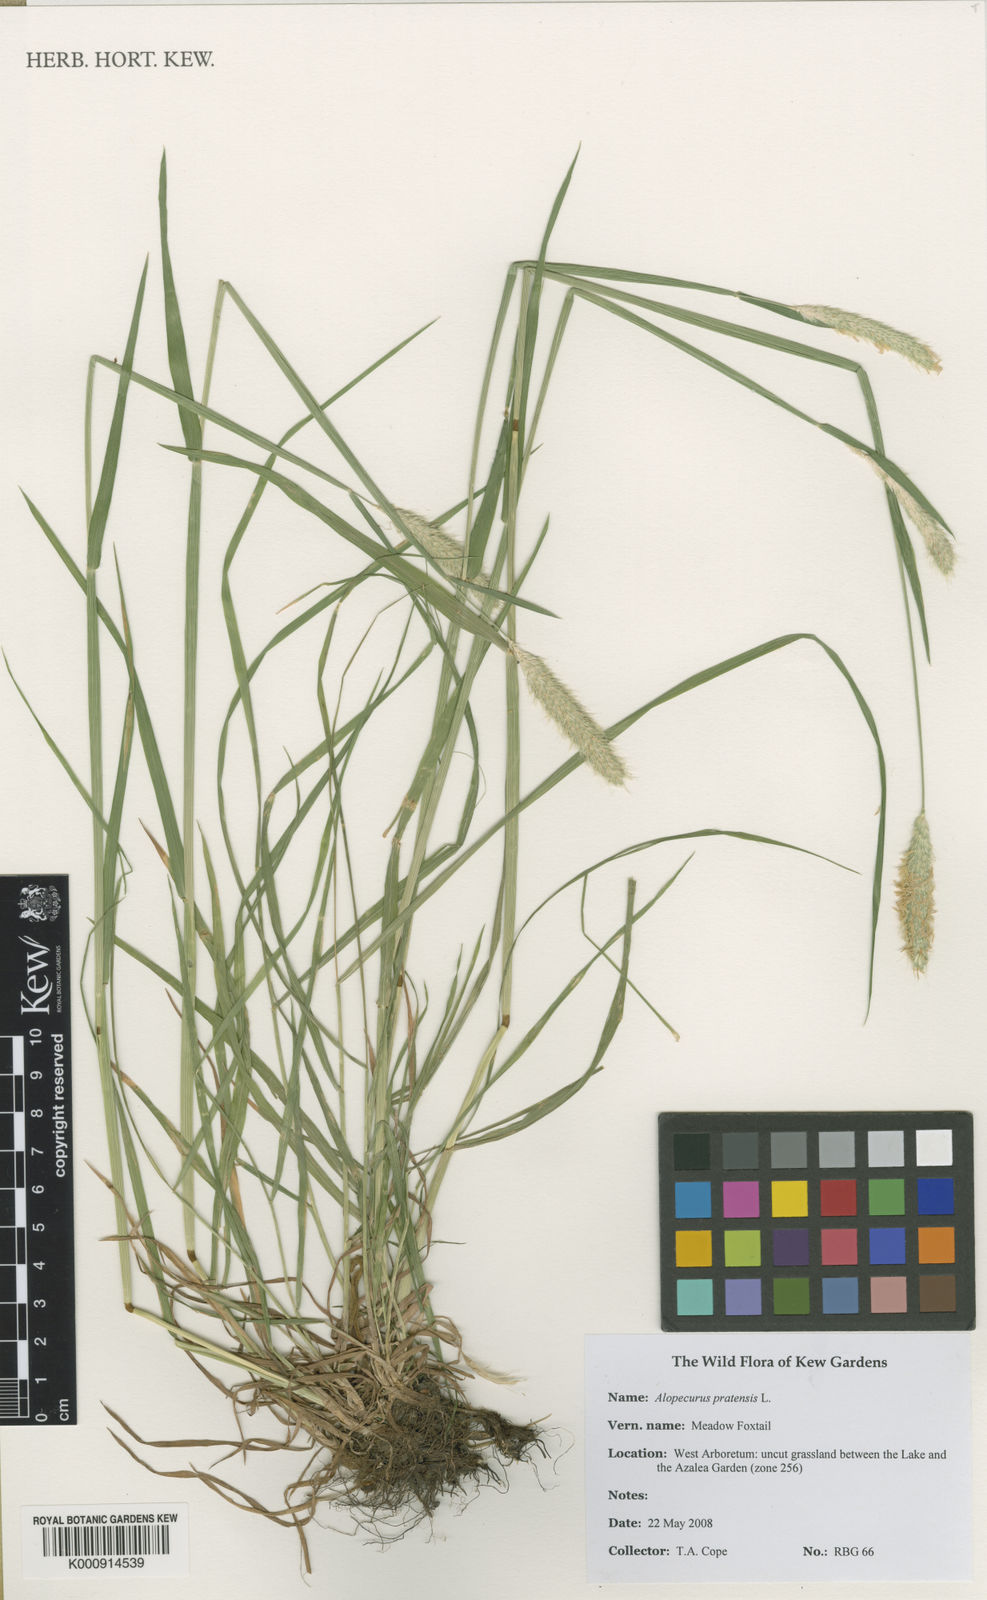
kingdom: Plantae
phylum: Tracheophyta
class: Liliopsida
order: Poales
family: Poaceae
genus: Alopecurus
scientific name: Alopecurus pratensis
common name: Meadow foxtail
